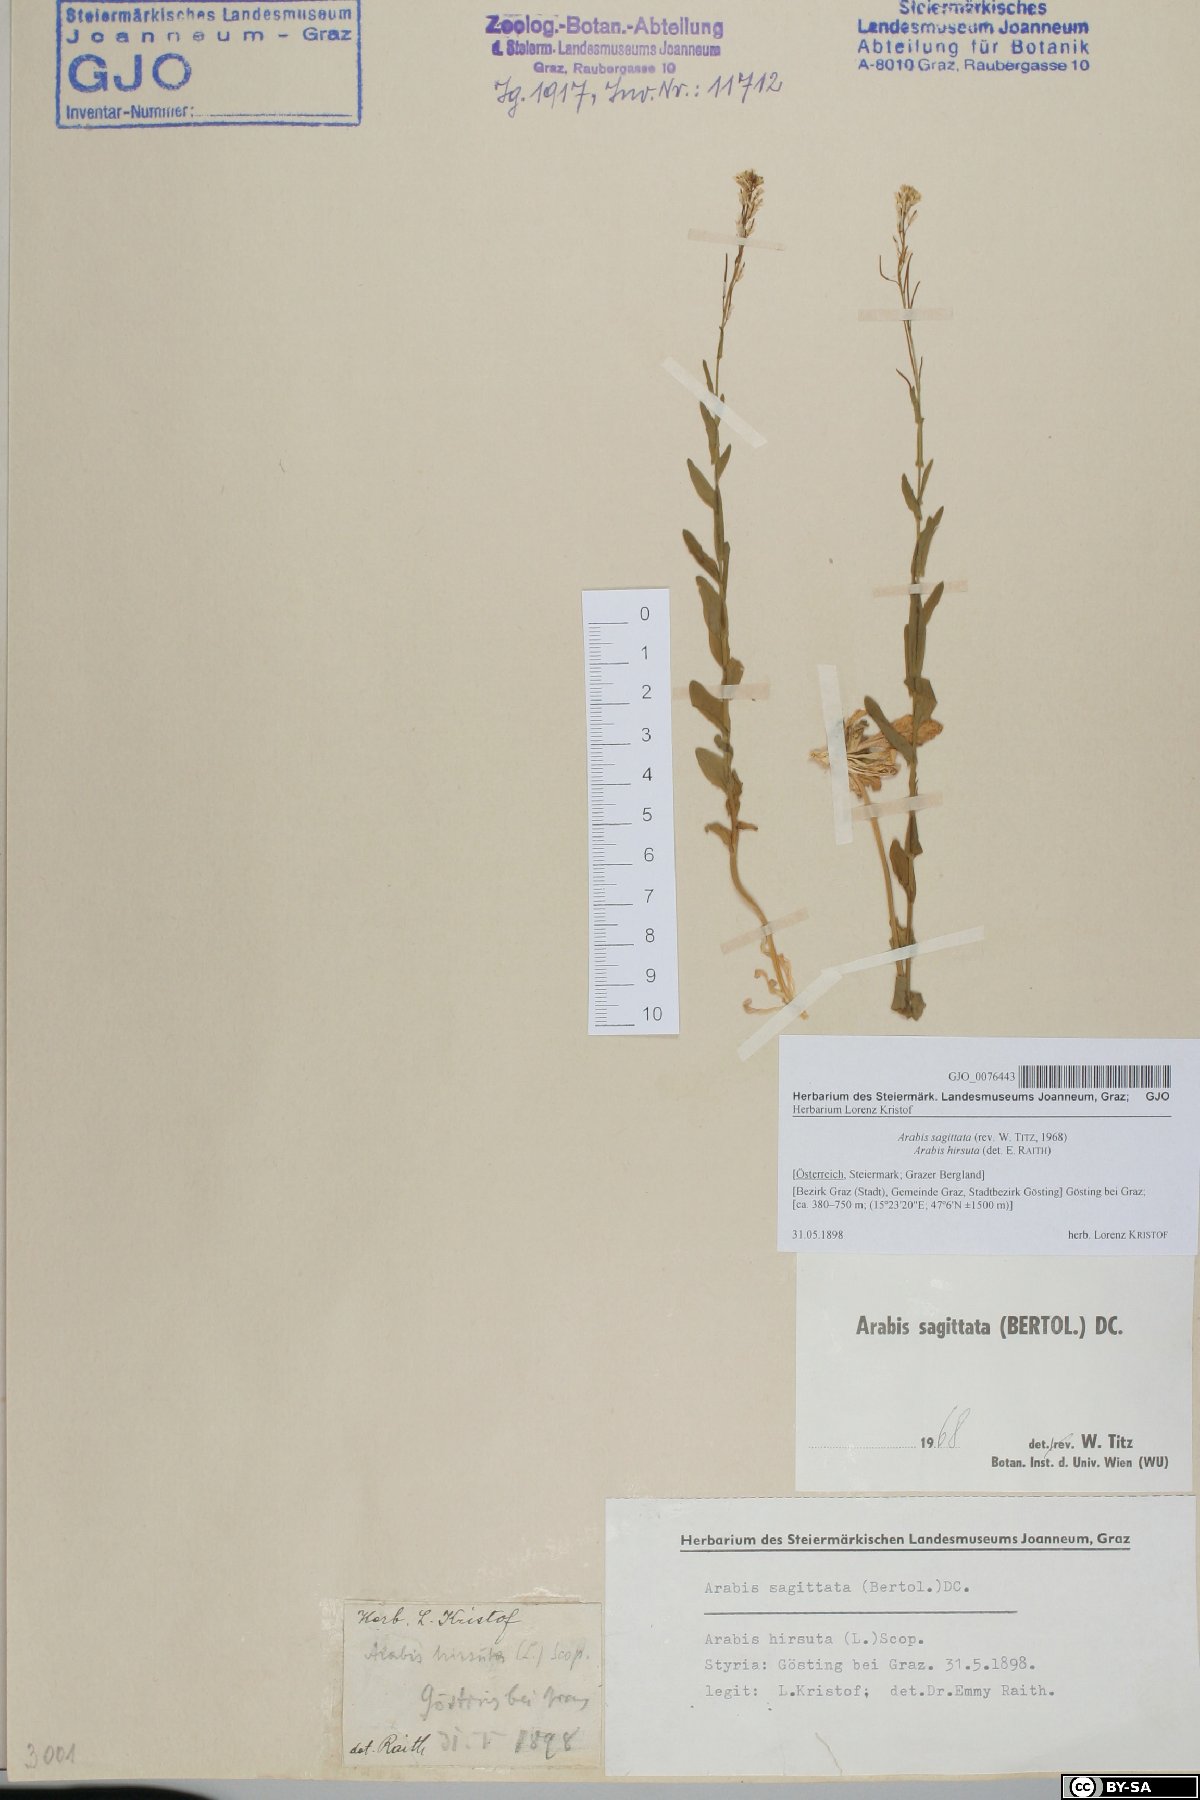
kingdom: Plantae
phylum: Tracheophyta
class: Magnoliopsida
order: Brassicales
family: Brassicaceae
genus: Arabis
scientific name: Arabis sagittata
